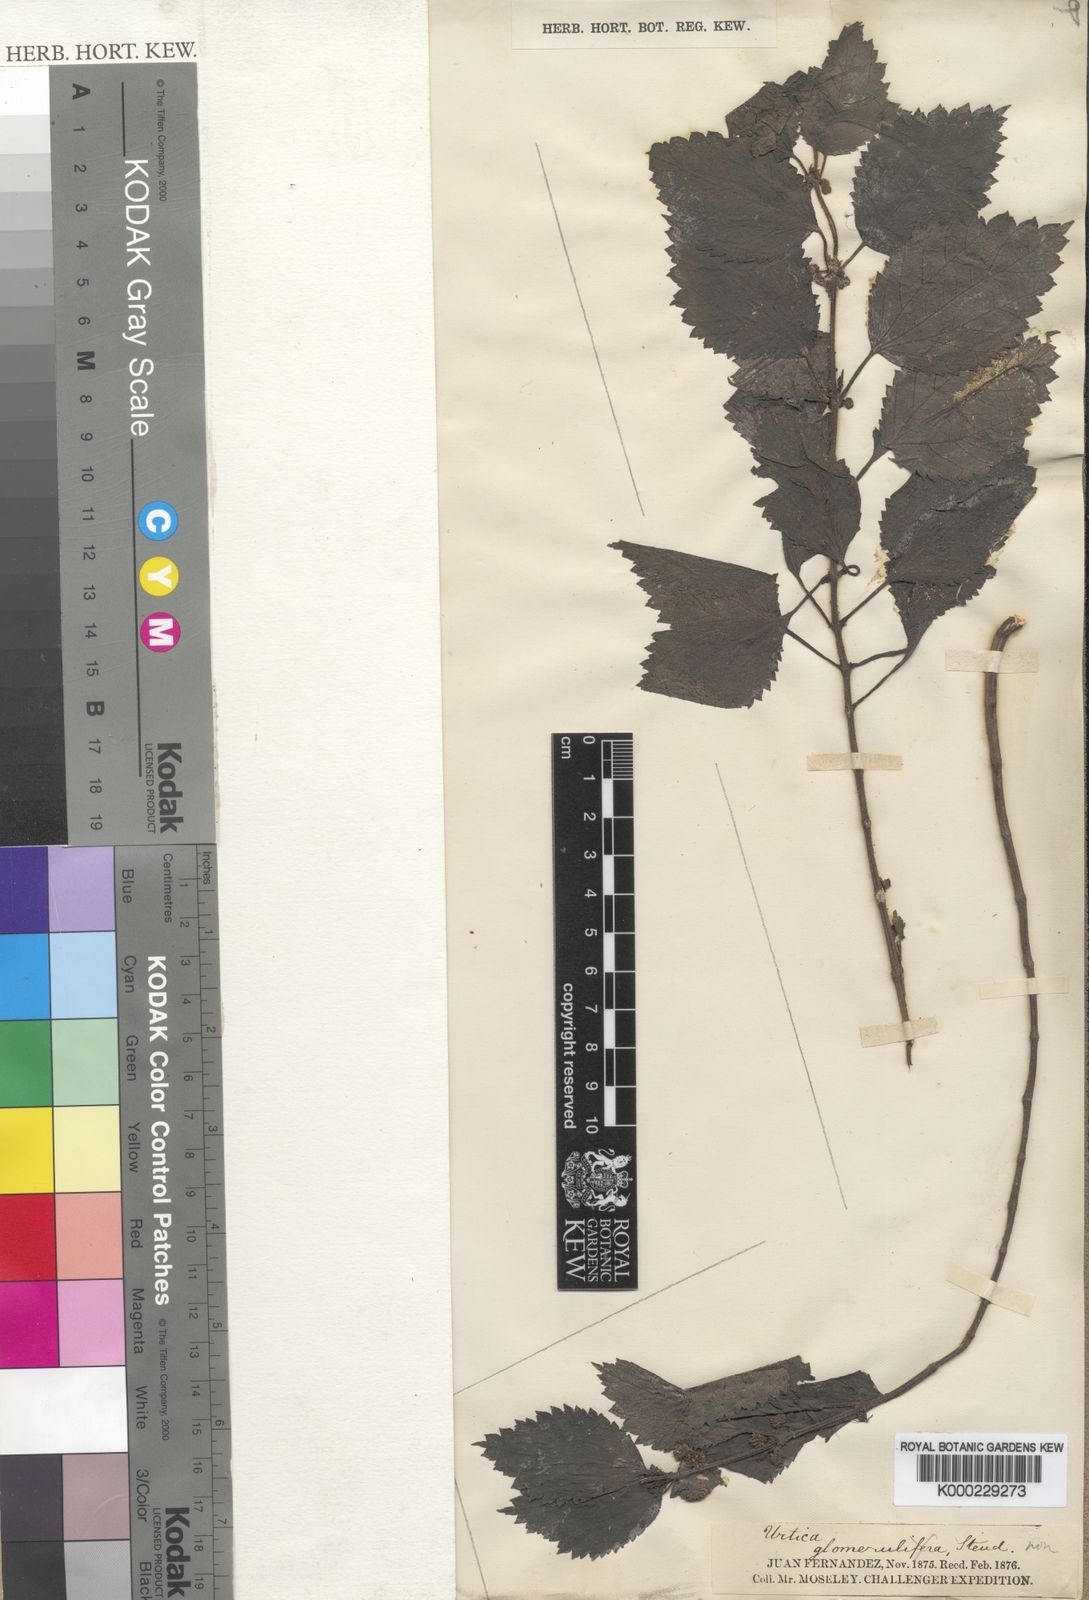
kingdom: Plantae
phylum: Tracheophyta
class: Magnoliopsida
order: Rosales
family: Urticaceae
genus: Urtica
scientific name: Urtica
